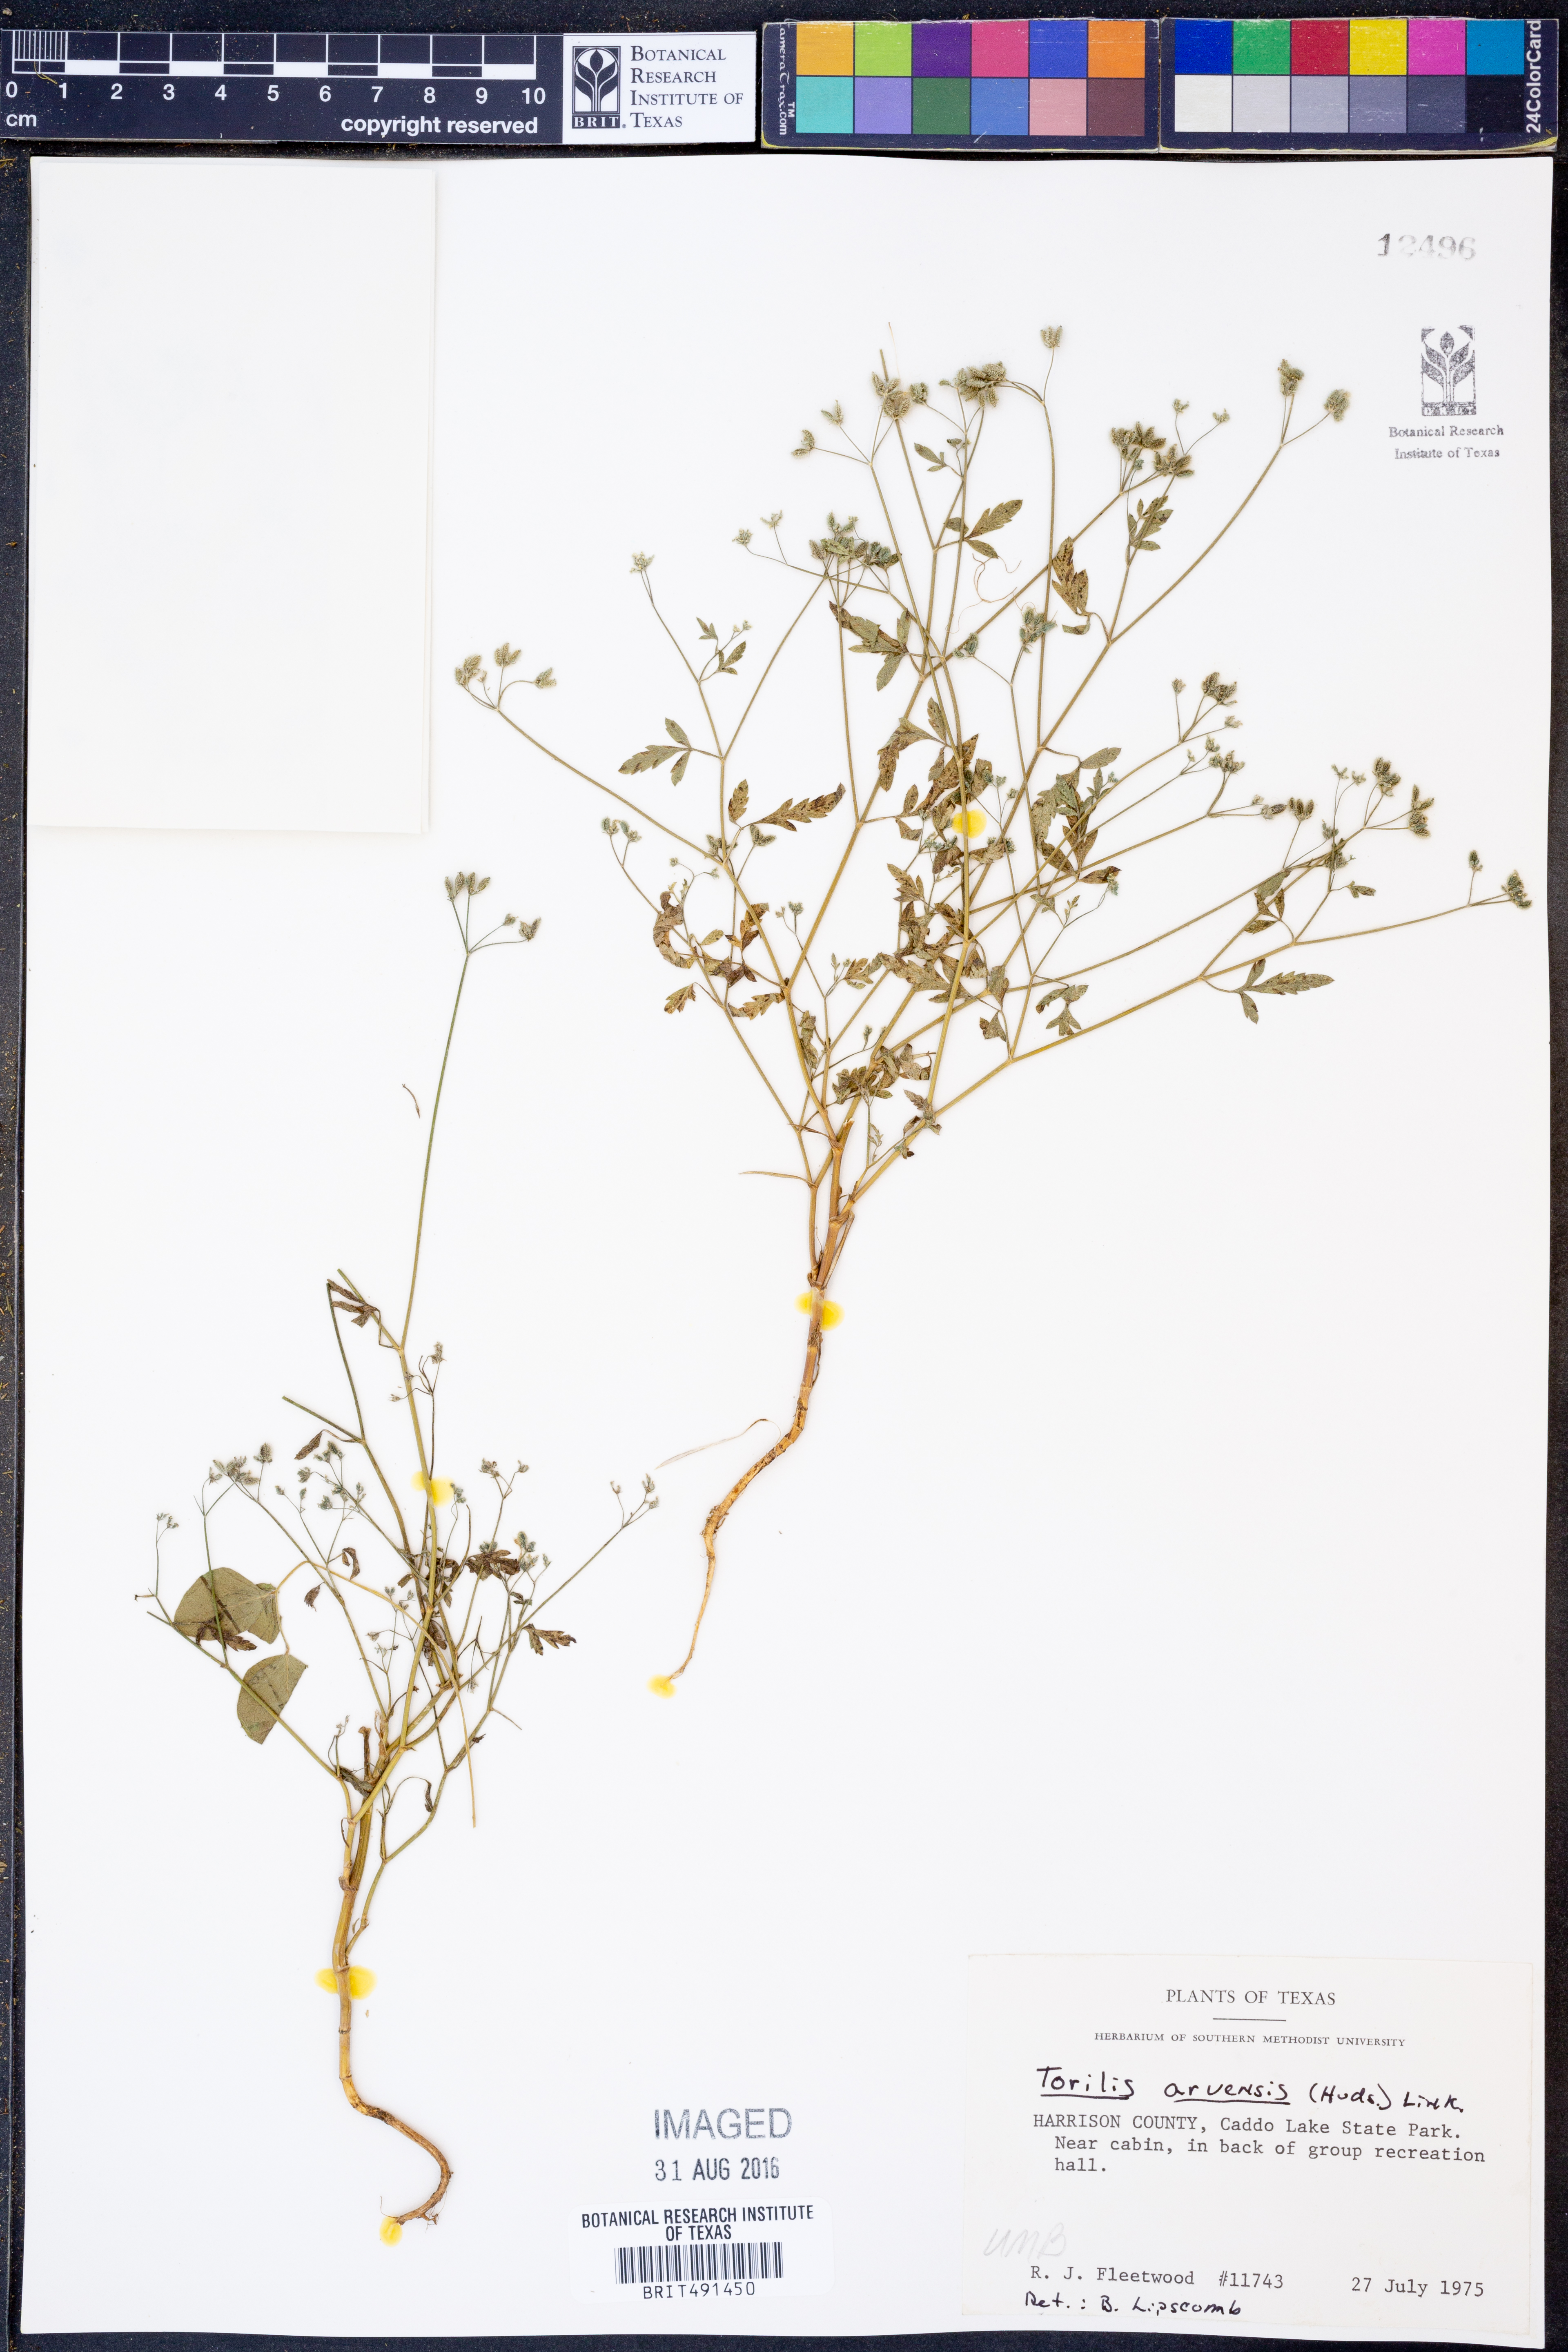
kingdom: Plantae
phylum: Tracheophyta
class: Magnoliopsida
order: Apiales
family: Apiaceae
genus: Torilis
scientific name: Torilis arvensis
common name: Spreading hedge-parsley
